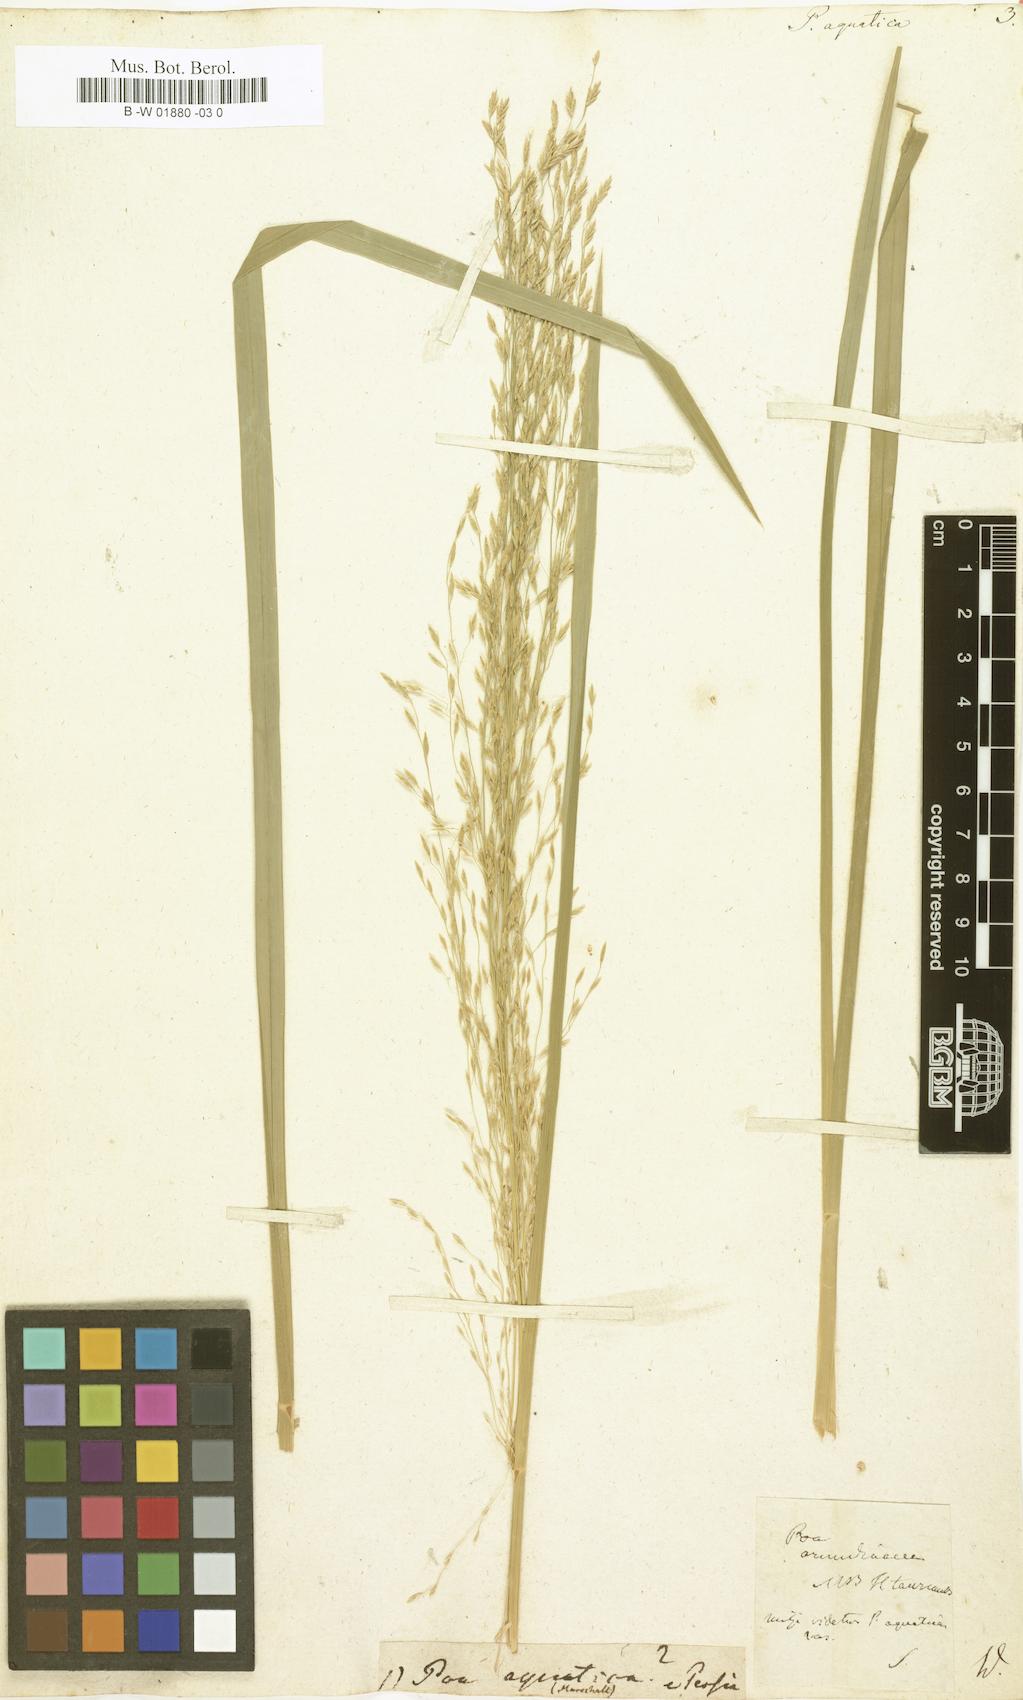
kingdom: Plantae
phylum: Tracheophyta
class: Liliopsida
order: Poales
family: Poaceae
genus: Glyceria
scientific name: Glyceria maxima
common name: Reed mannagrass
